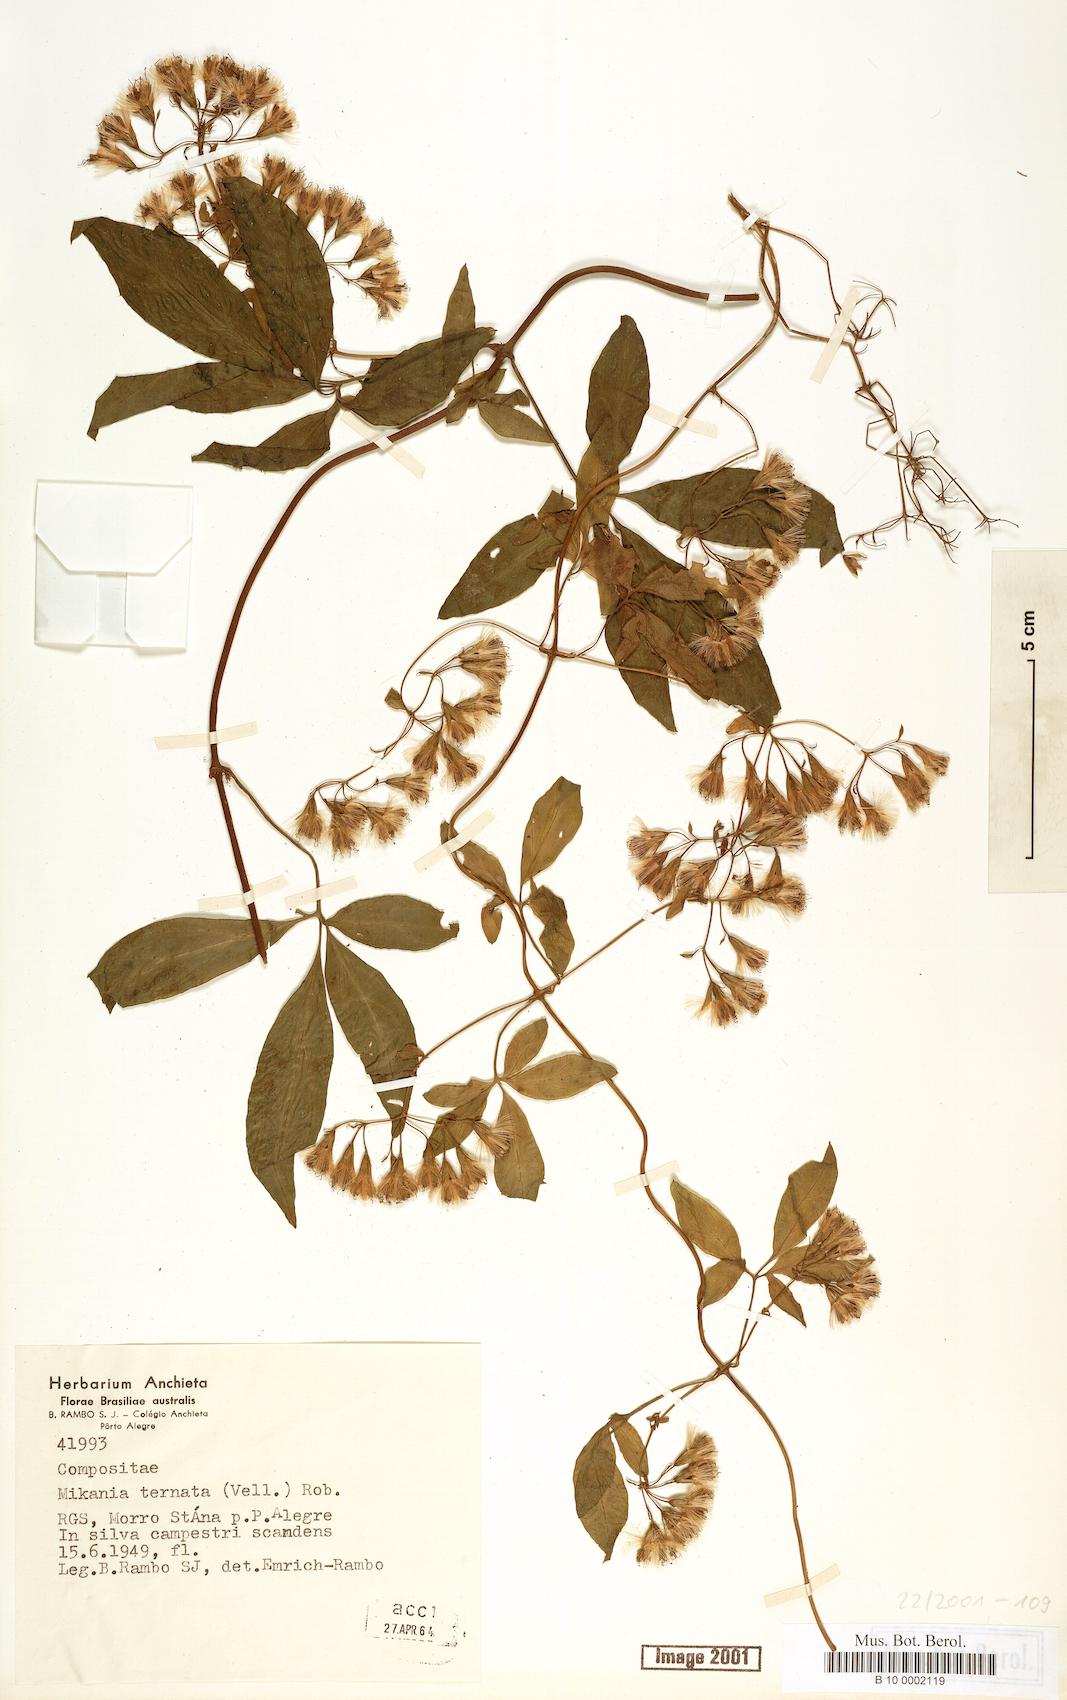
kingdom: Plantae
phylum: Tracheophyta
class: Magnoliopsida
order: Asterales
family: Asteraceae
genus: Mikania
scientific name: Mikania ternata
